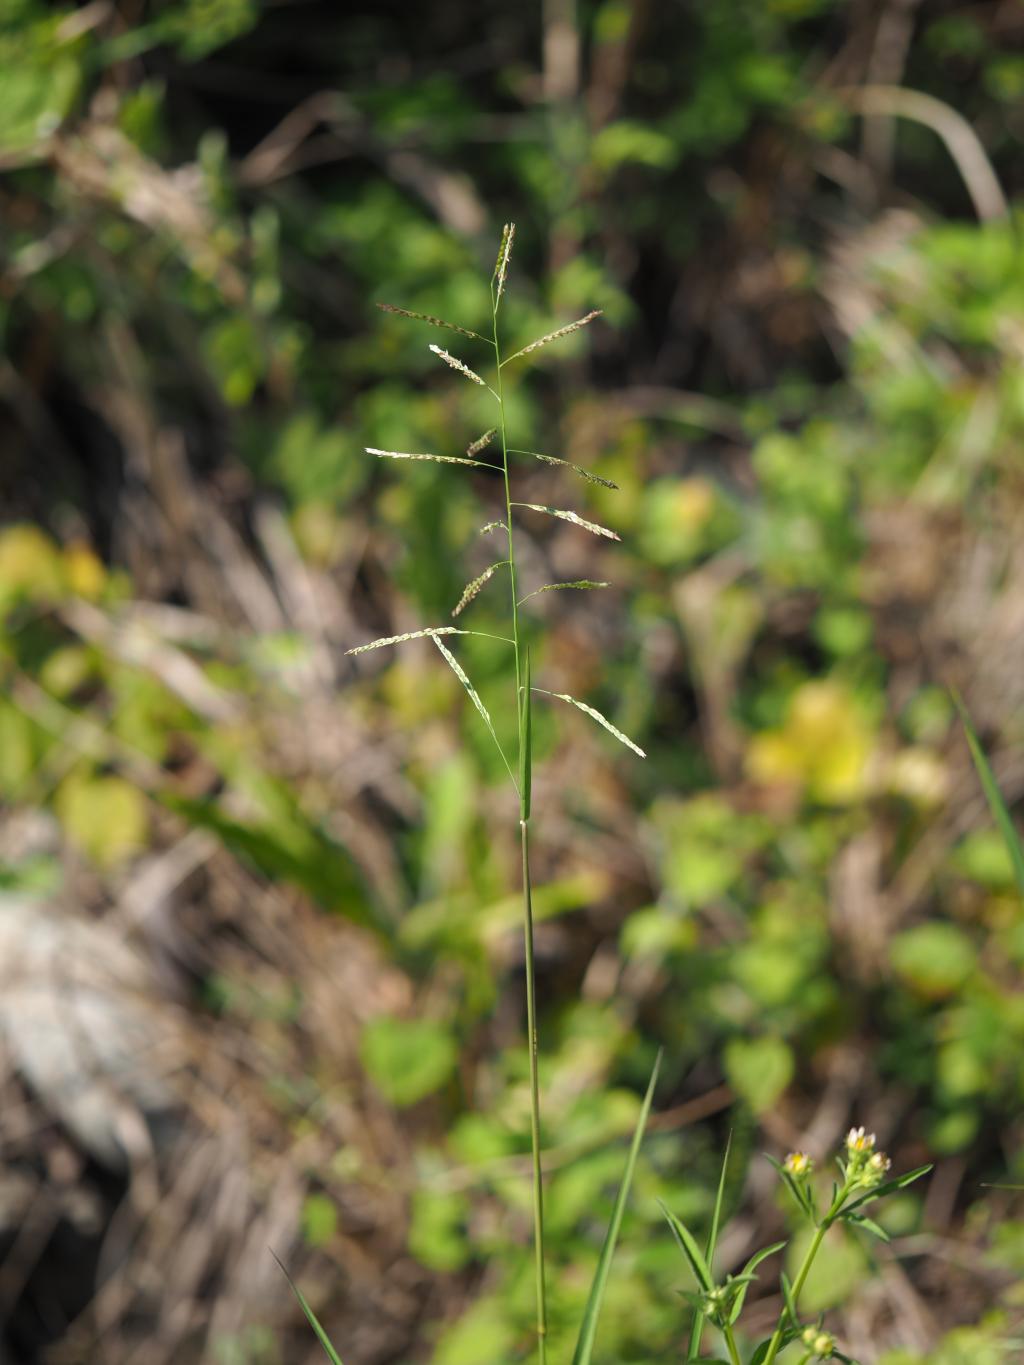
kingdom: Plantae
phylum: Tracheophyta
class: Liliopsida
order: Poales
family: Poaceae
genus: Eriochloa
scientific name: Eriochloa procera
